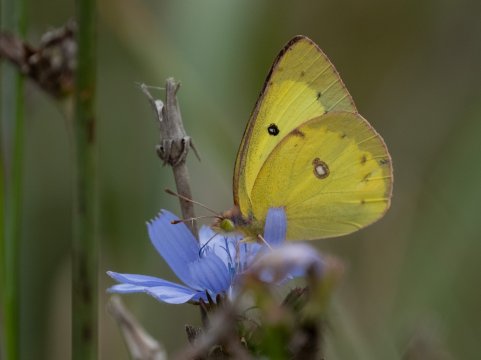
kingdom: Animalia
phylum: Arthropoda
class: Insecta
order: Lepidoptera
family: Pieridae
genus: Colias
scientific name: Colias philodice
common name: Clouded Sulphur
